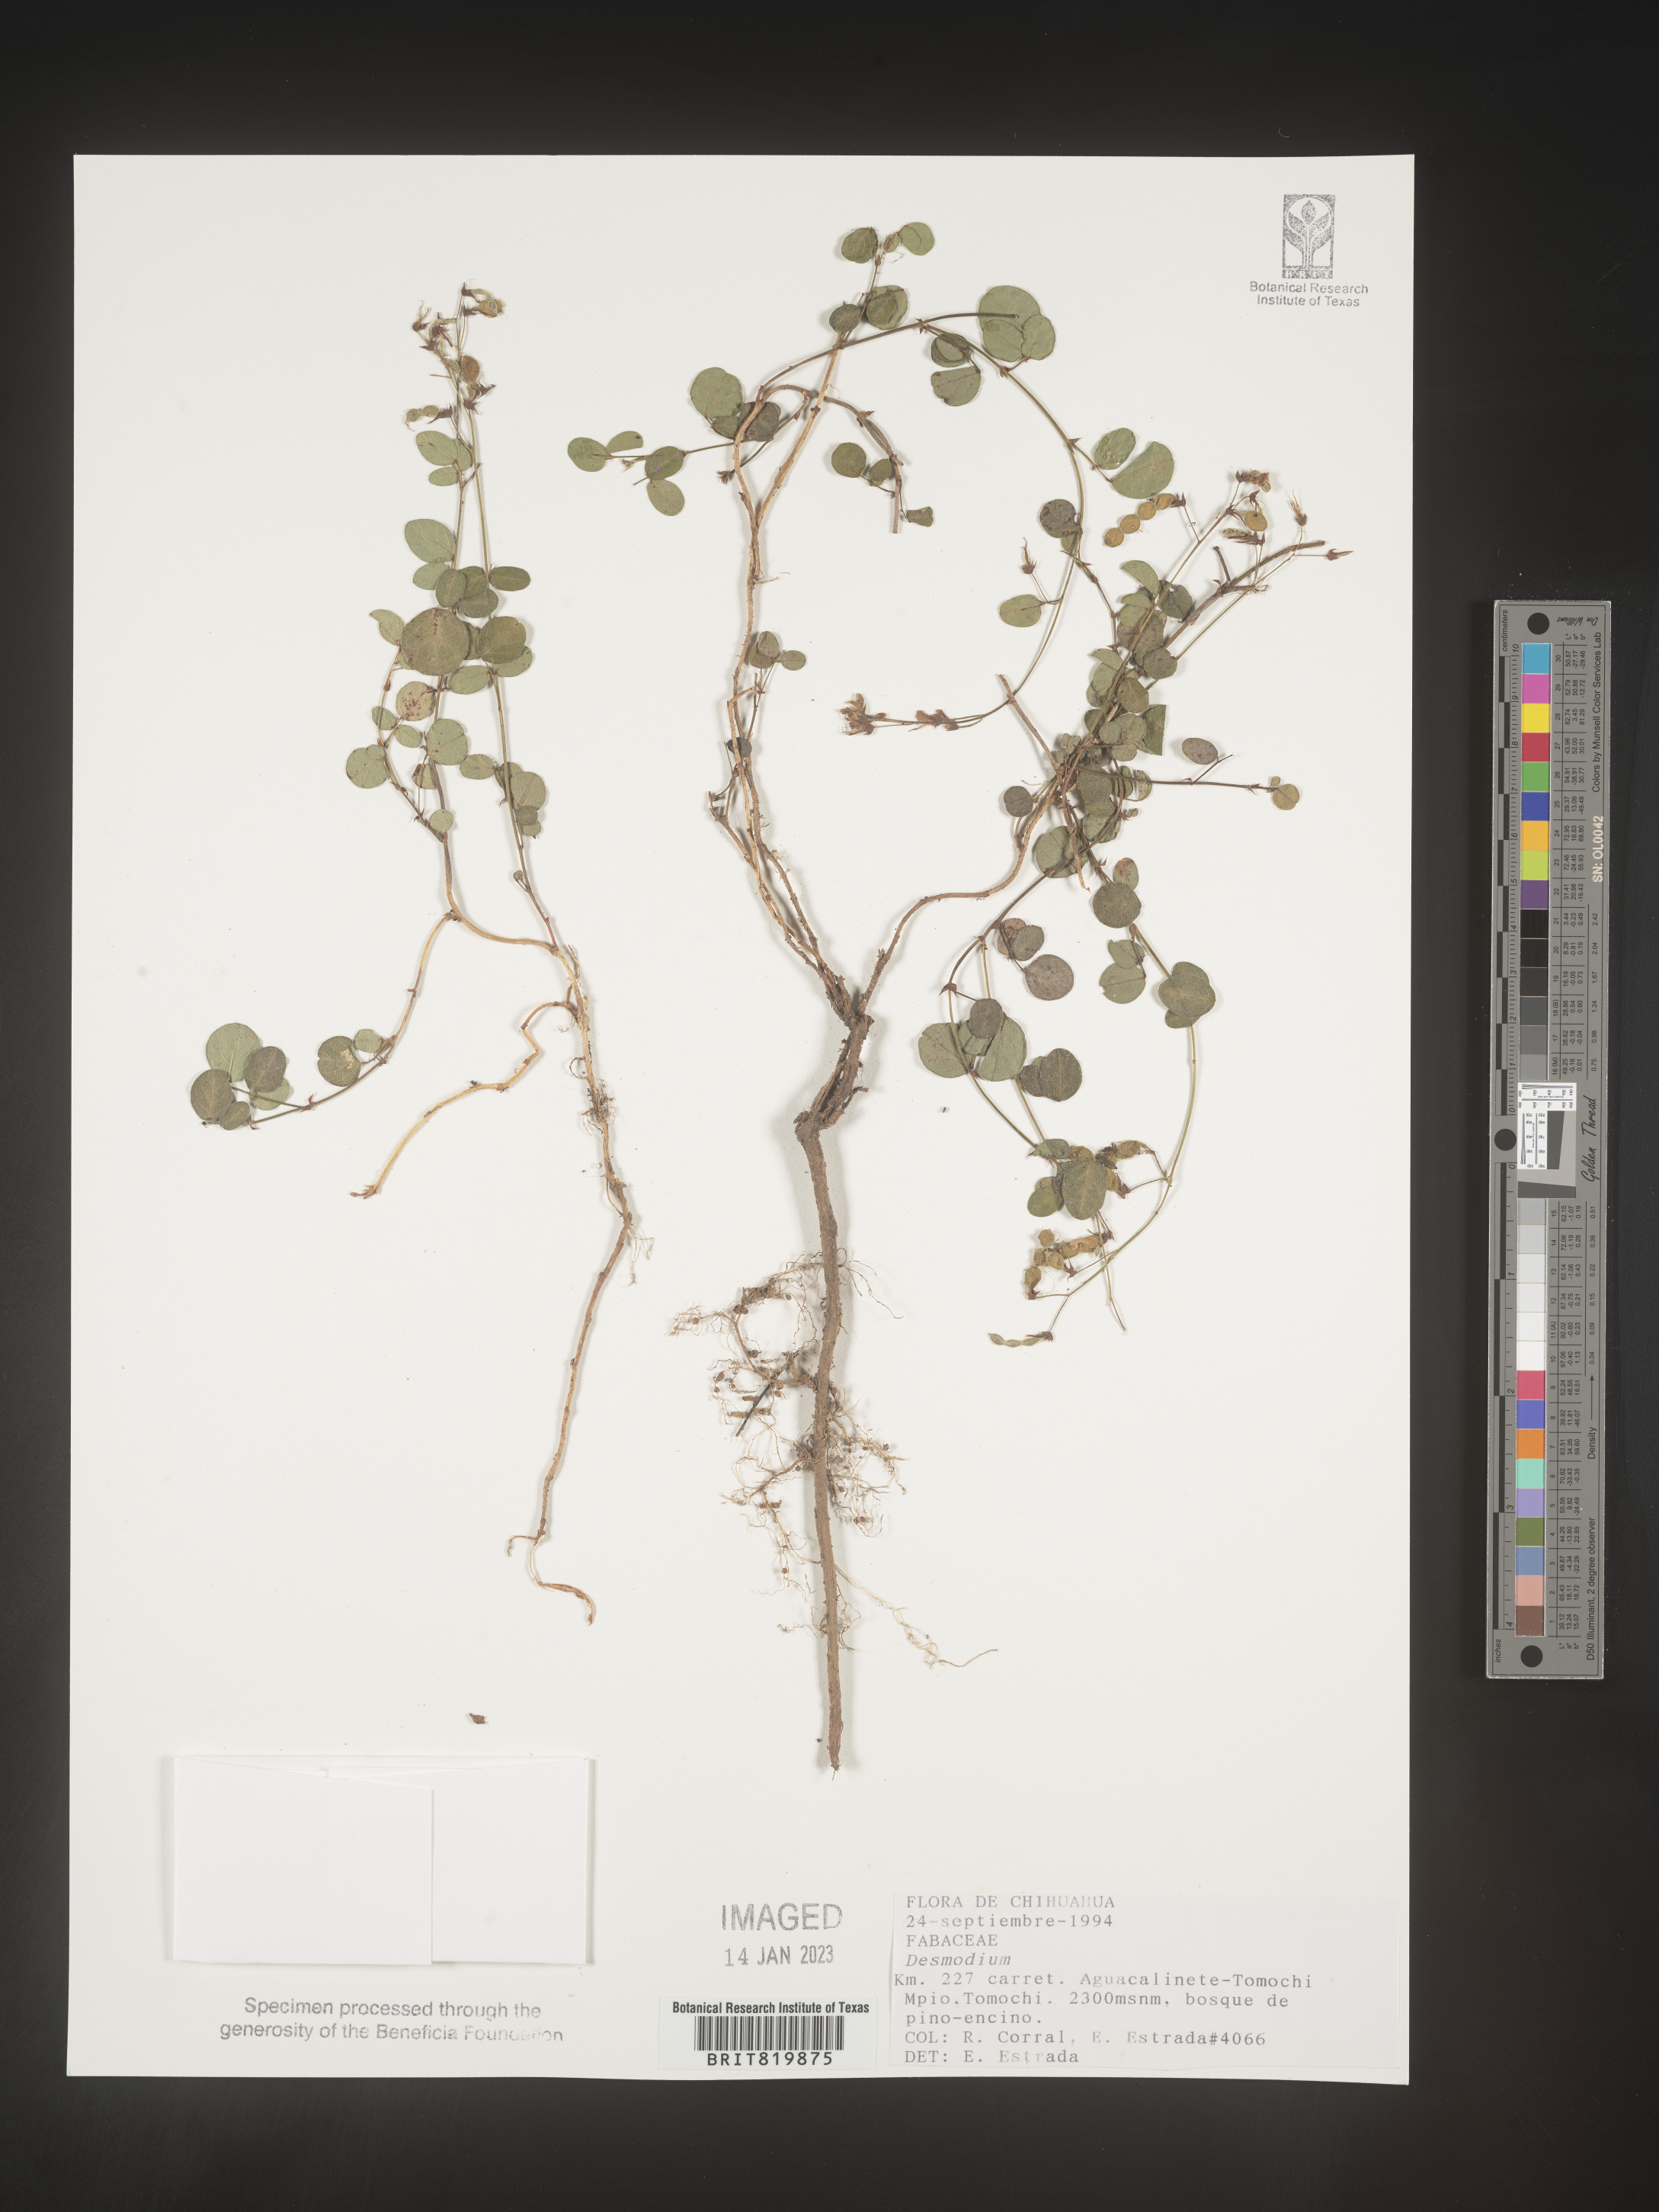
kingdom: Plantae
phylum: Tracheophyta
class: Magnoliopsida
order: Fabales
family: Fabaceae
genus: Desmodium
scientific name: Desmodium
